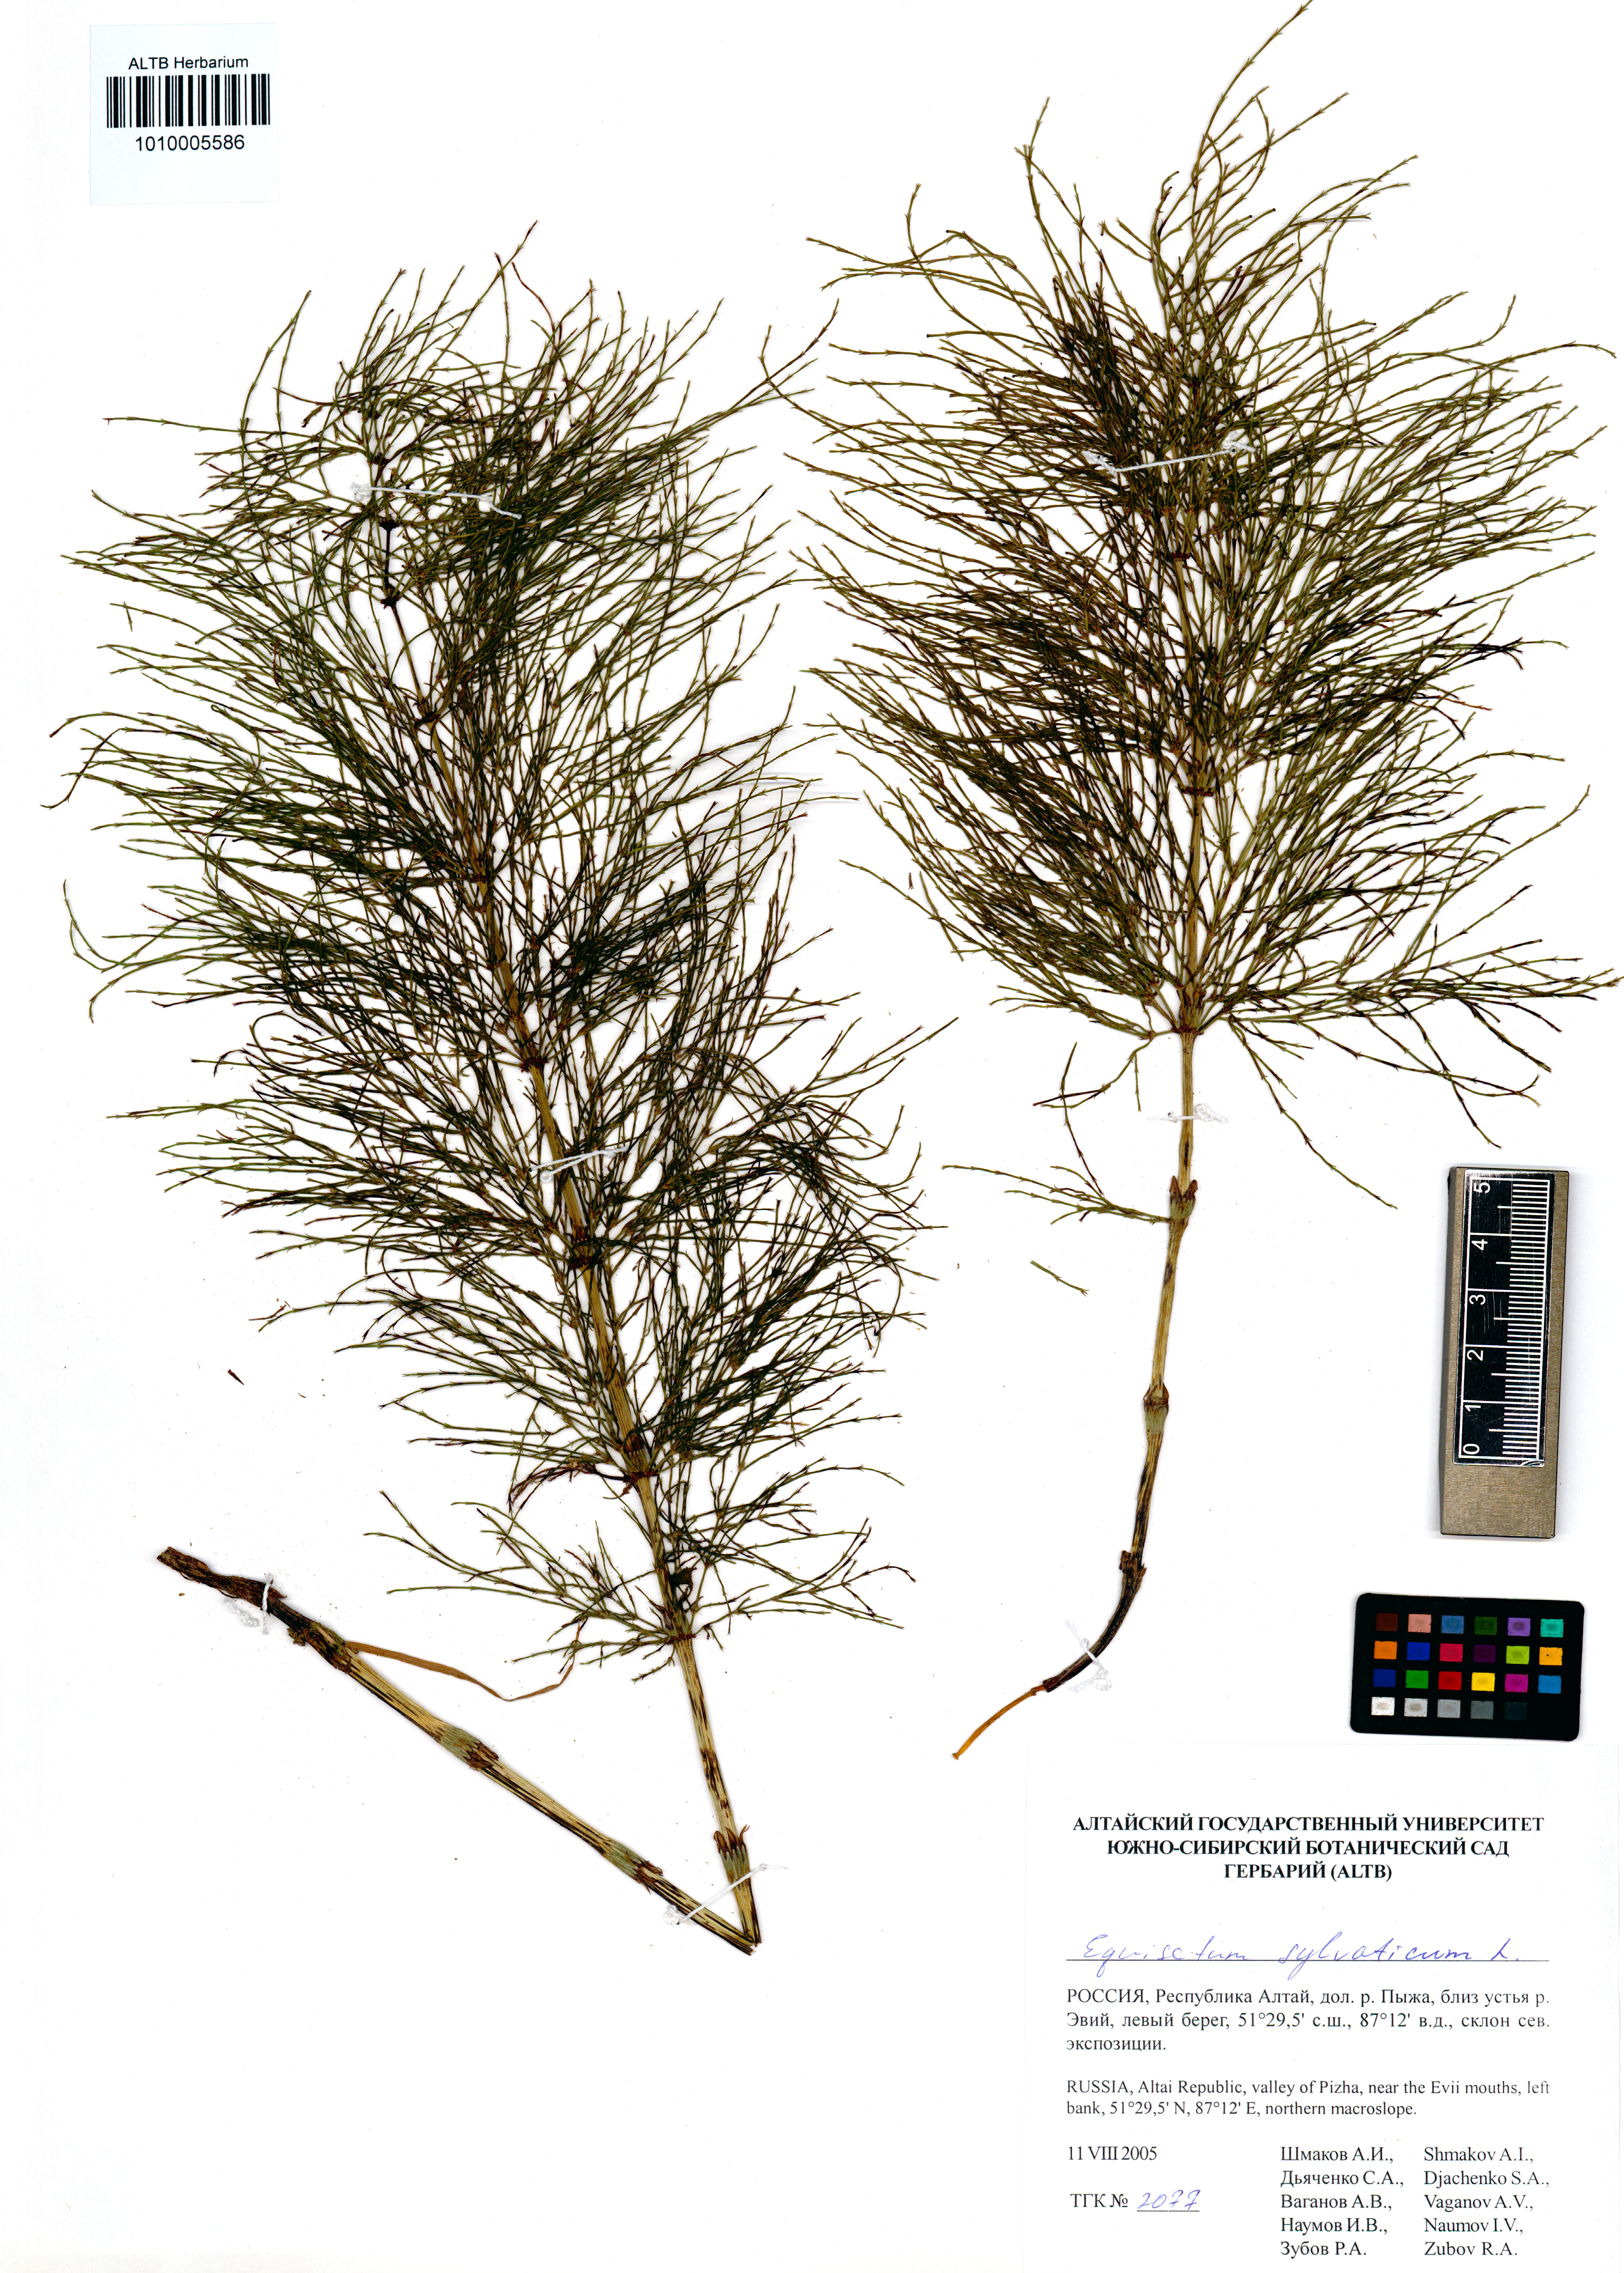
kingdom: Plantae
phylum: Tracheophyta
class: Polypodiopsida
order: Equisetales
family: Equisetaceae
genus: Equisetum
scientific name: Equisetum sylvaticum
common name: Wood horsetail
